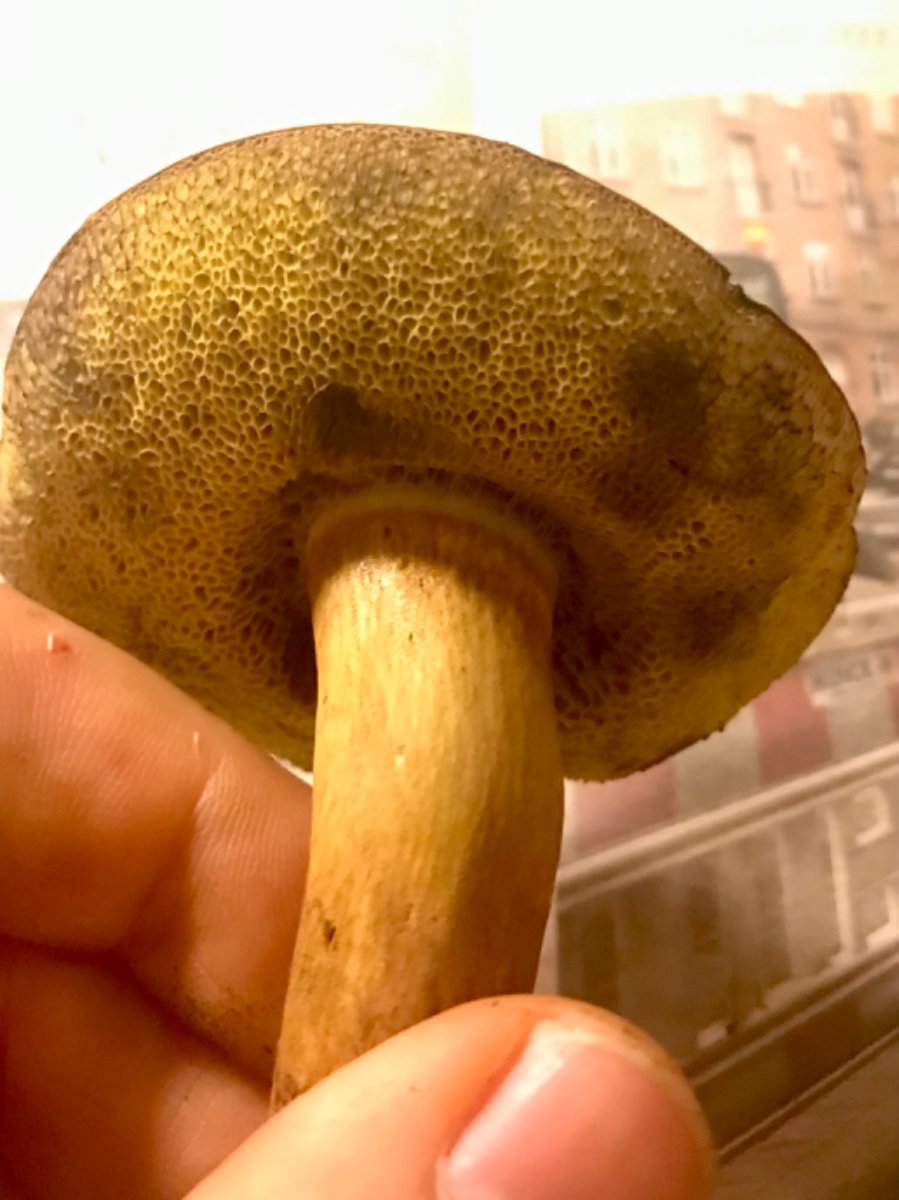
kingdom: Fungi
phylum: Basidiomycota
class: Agaricomycetes
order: Boletales
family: Boletaceae
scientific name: Boletaceae
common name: rørhatfamilien
